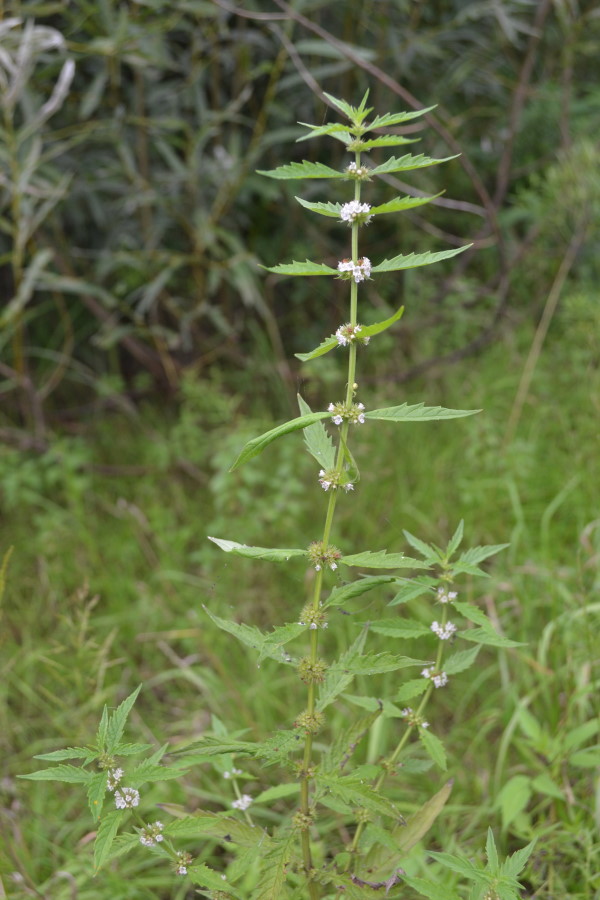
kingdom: Plantae
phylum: Tracheophyta
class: Magnoliopsida
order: Lamiales
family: Lamiaceae
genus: Lycopus
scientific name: Lycopus europaeus
